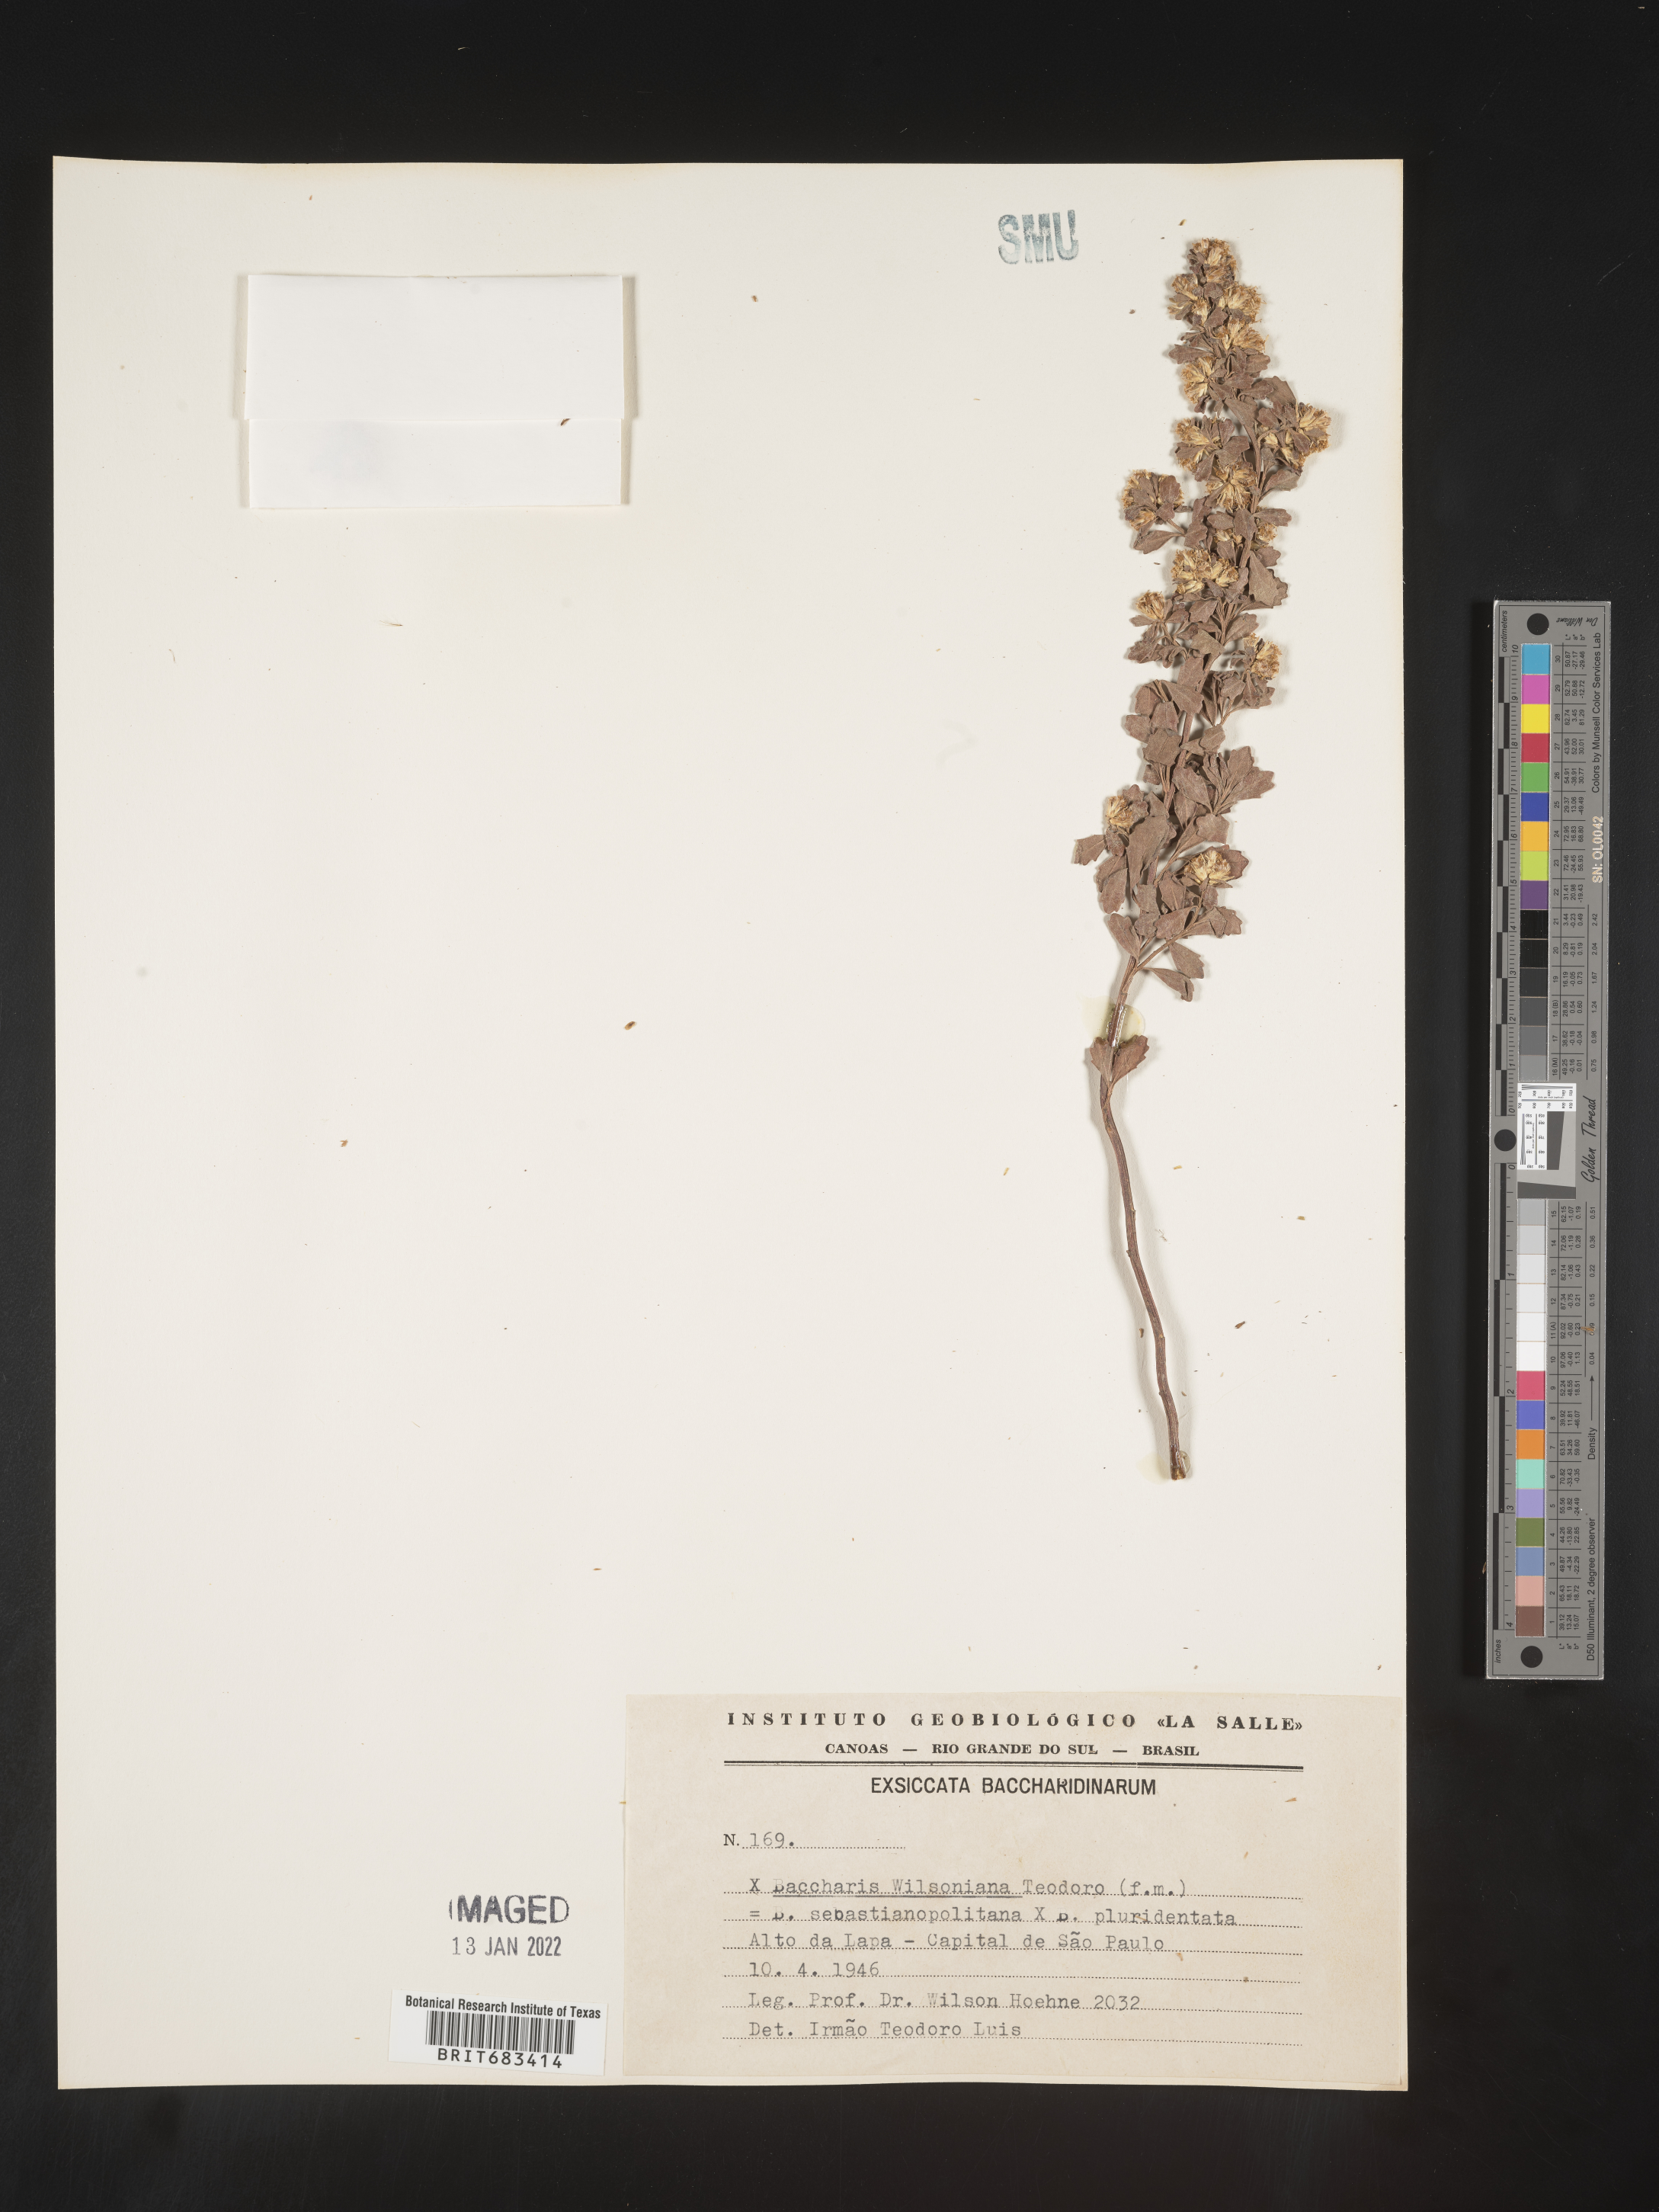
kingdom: Plantae
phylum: Tracheophyta
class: Magnoliopsida
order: Asterales
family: Asteraceae
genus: Baccharis
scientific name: Baccharis
